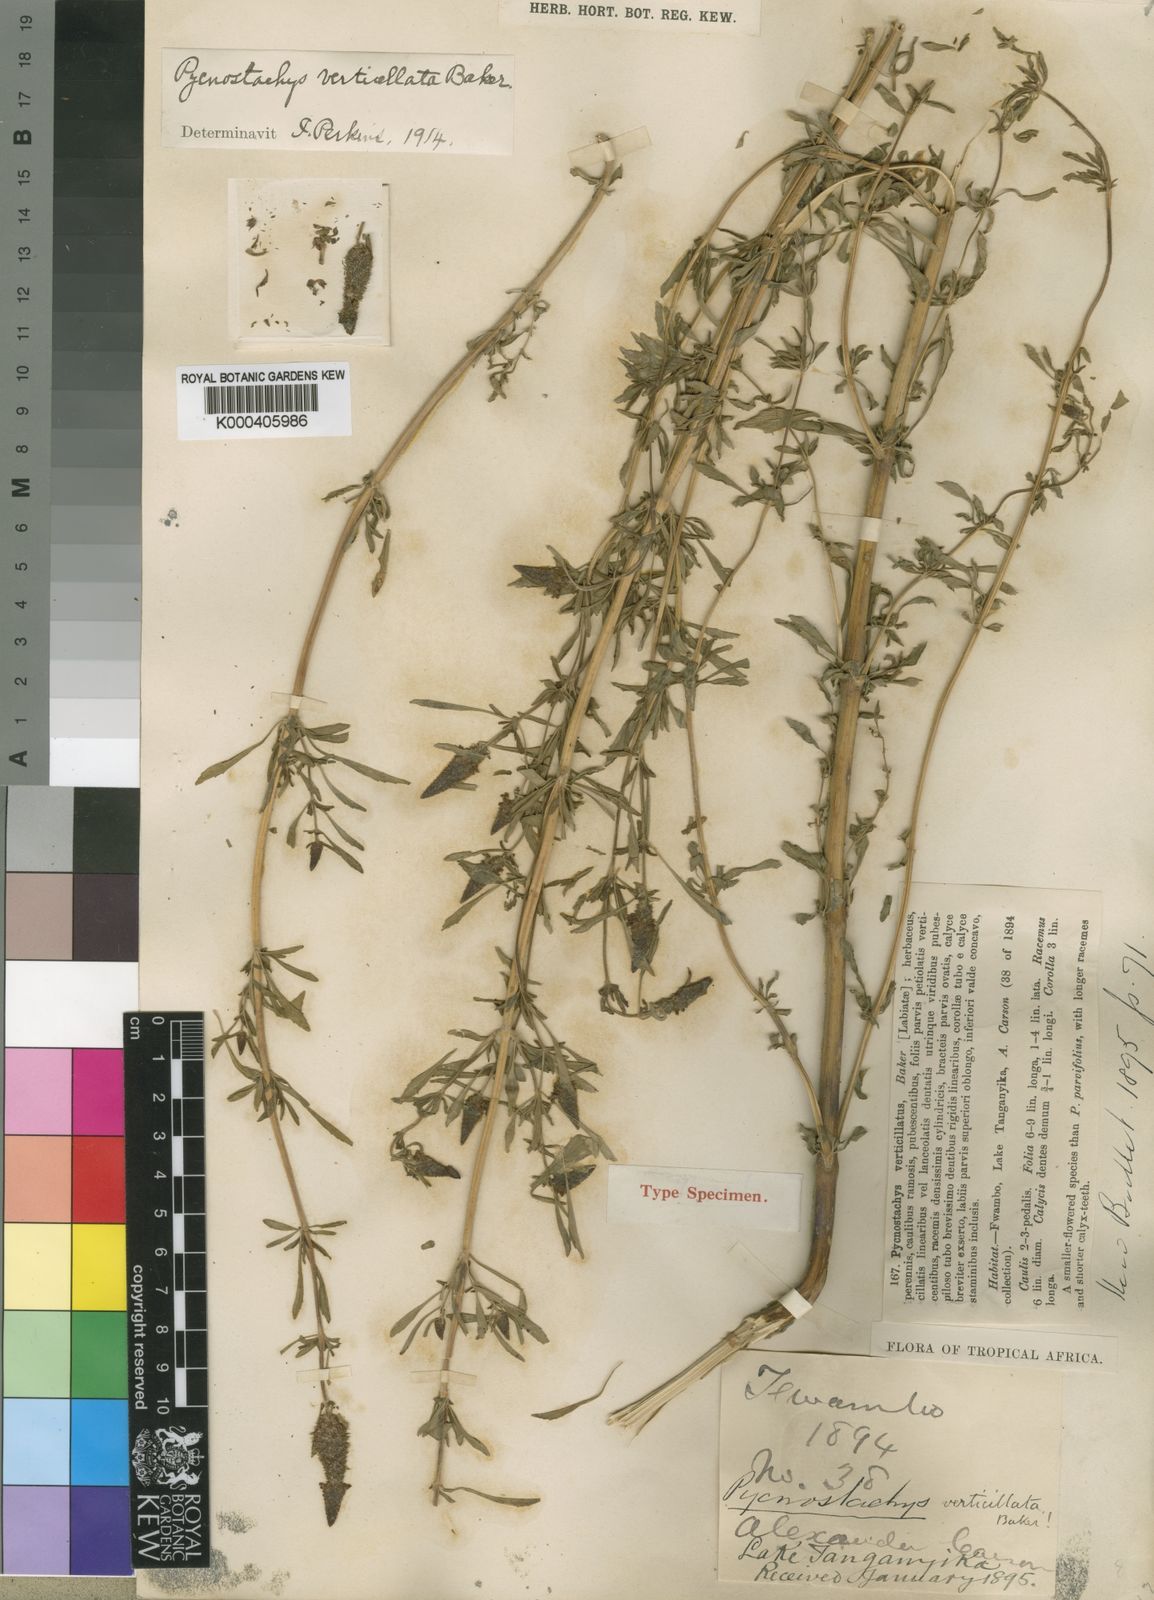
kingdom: Plantae
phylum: Tracheophyta
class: Magnoliopsida
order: Lamiales
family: Lamiaceae
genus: Coleus
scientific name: Coleus verticillatus
